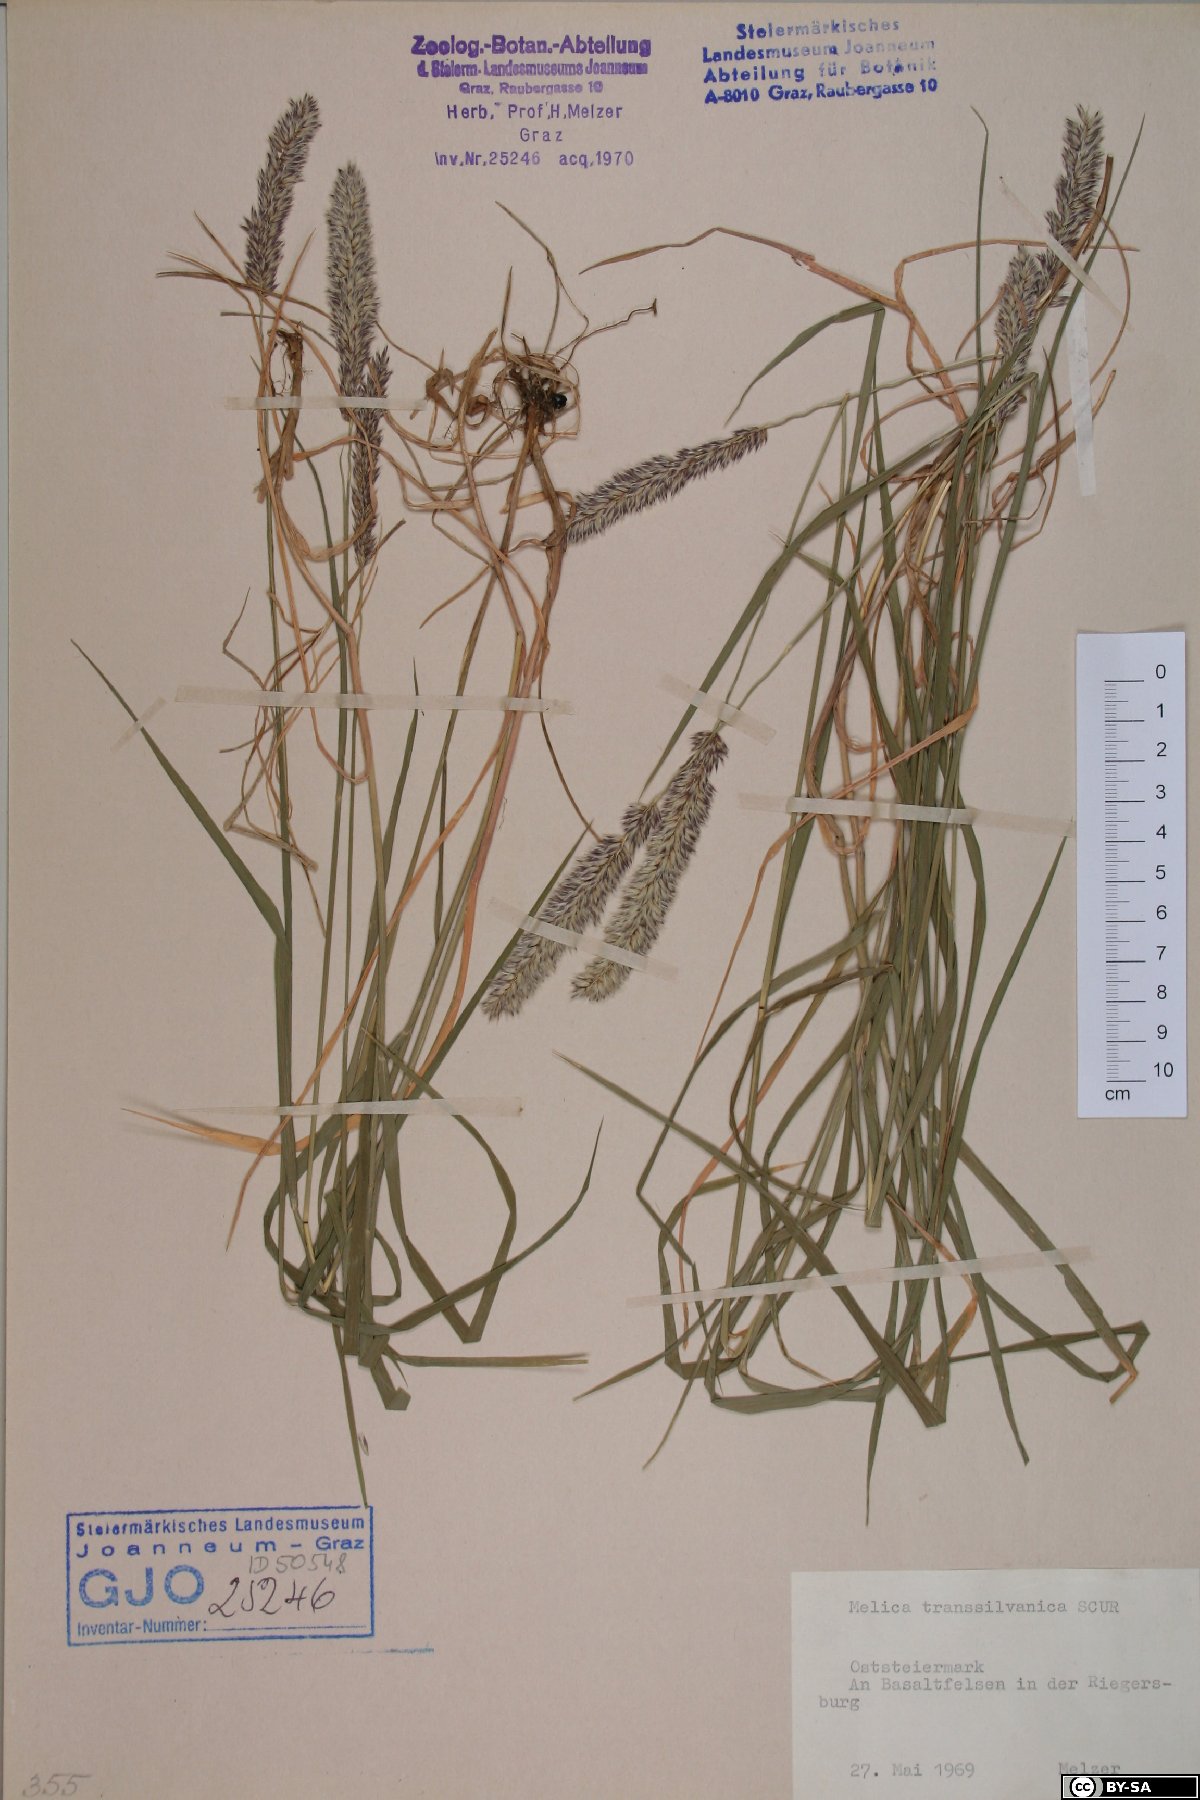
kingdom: Plantae
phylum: Tracheophyta
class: Liliopsida
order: Poales
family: Poaceae
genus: Melica
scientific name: Melica transsilvanica
